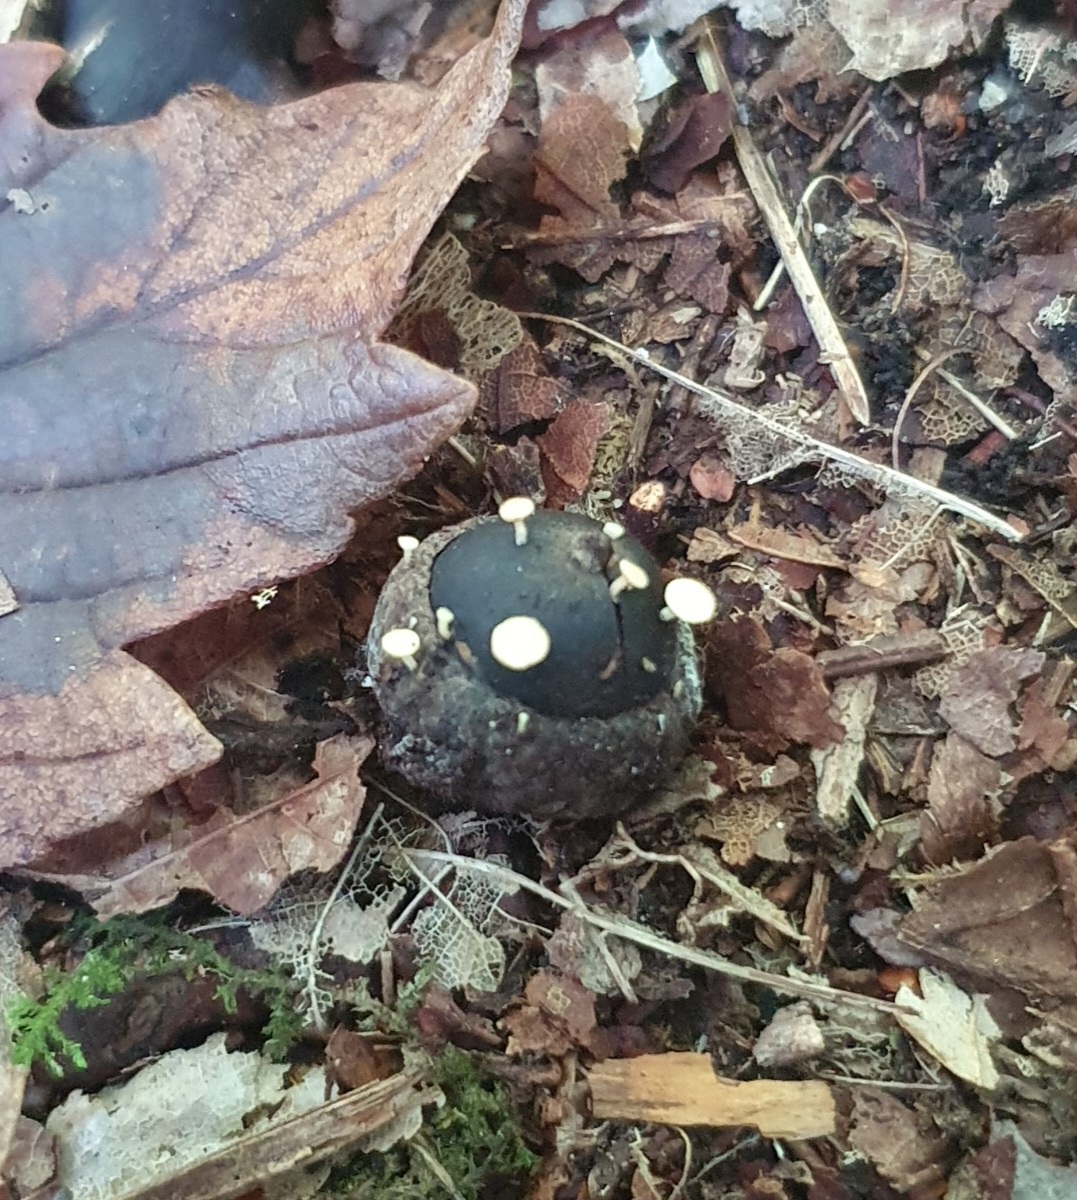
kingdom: Fungi
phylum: Ascomycota
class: Leotiomycetes
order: Helotiales
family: Helotiaceae
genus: Hymenoscyphus
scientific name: Hymenoscyphus fructigenus
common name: frugt-stilkskive
